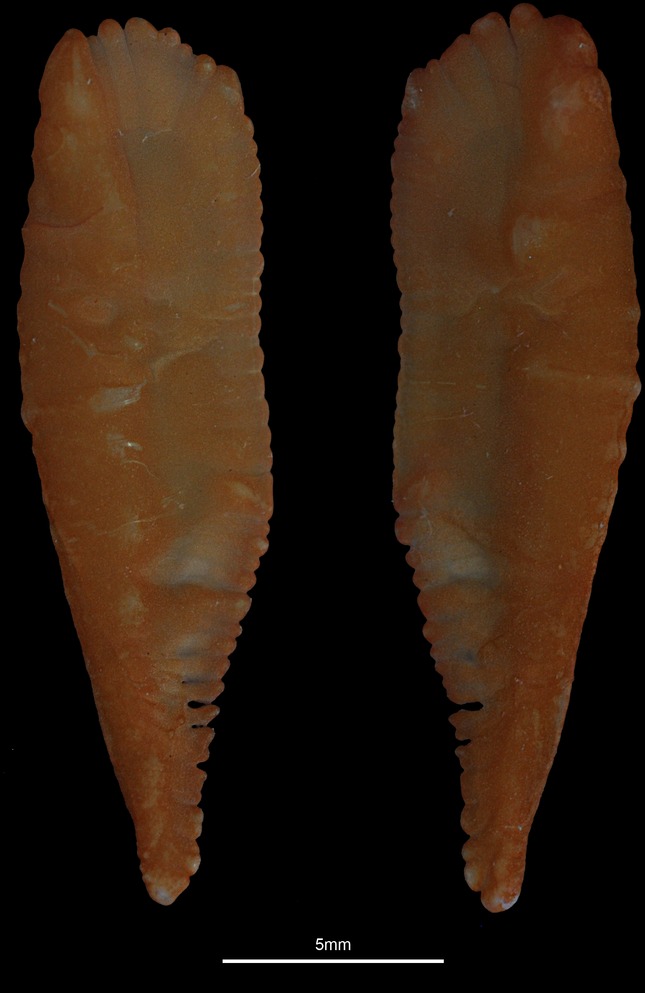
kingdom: Animalia
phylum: Chordata
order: Gadiformes
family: Gadidae
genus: Merlangius
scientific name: Merlangius merlangus
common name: Whiting
